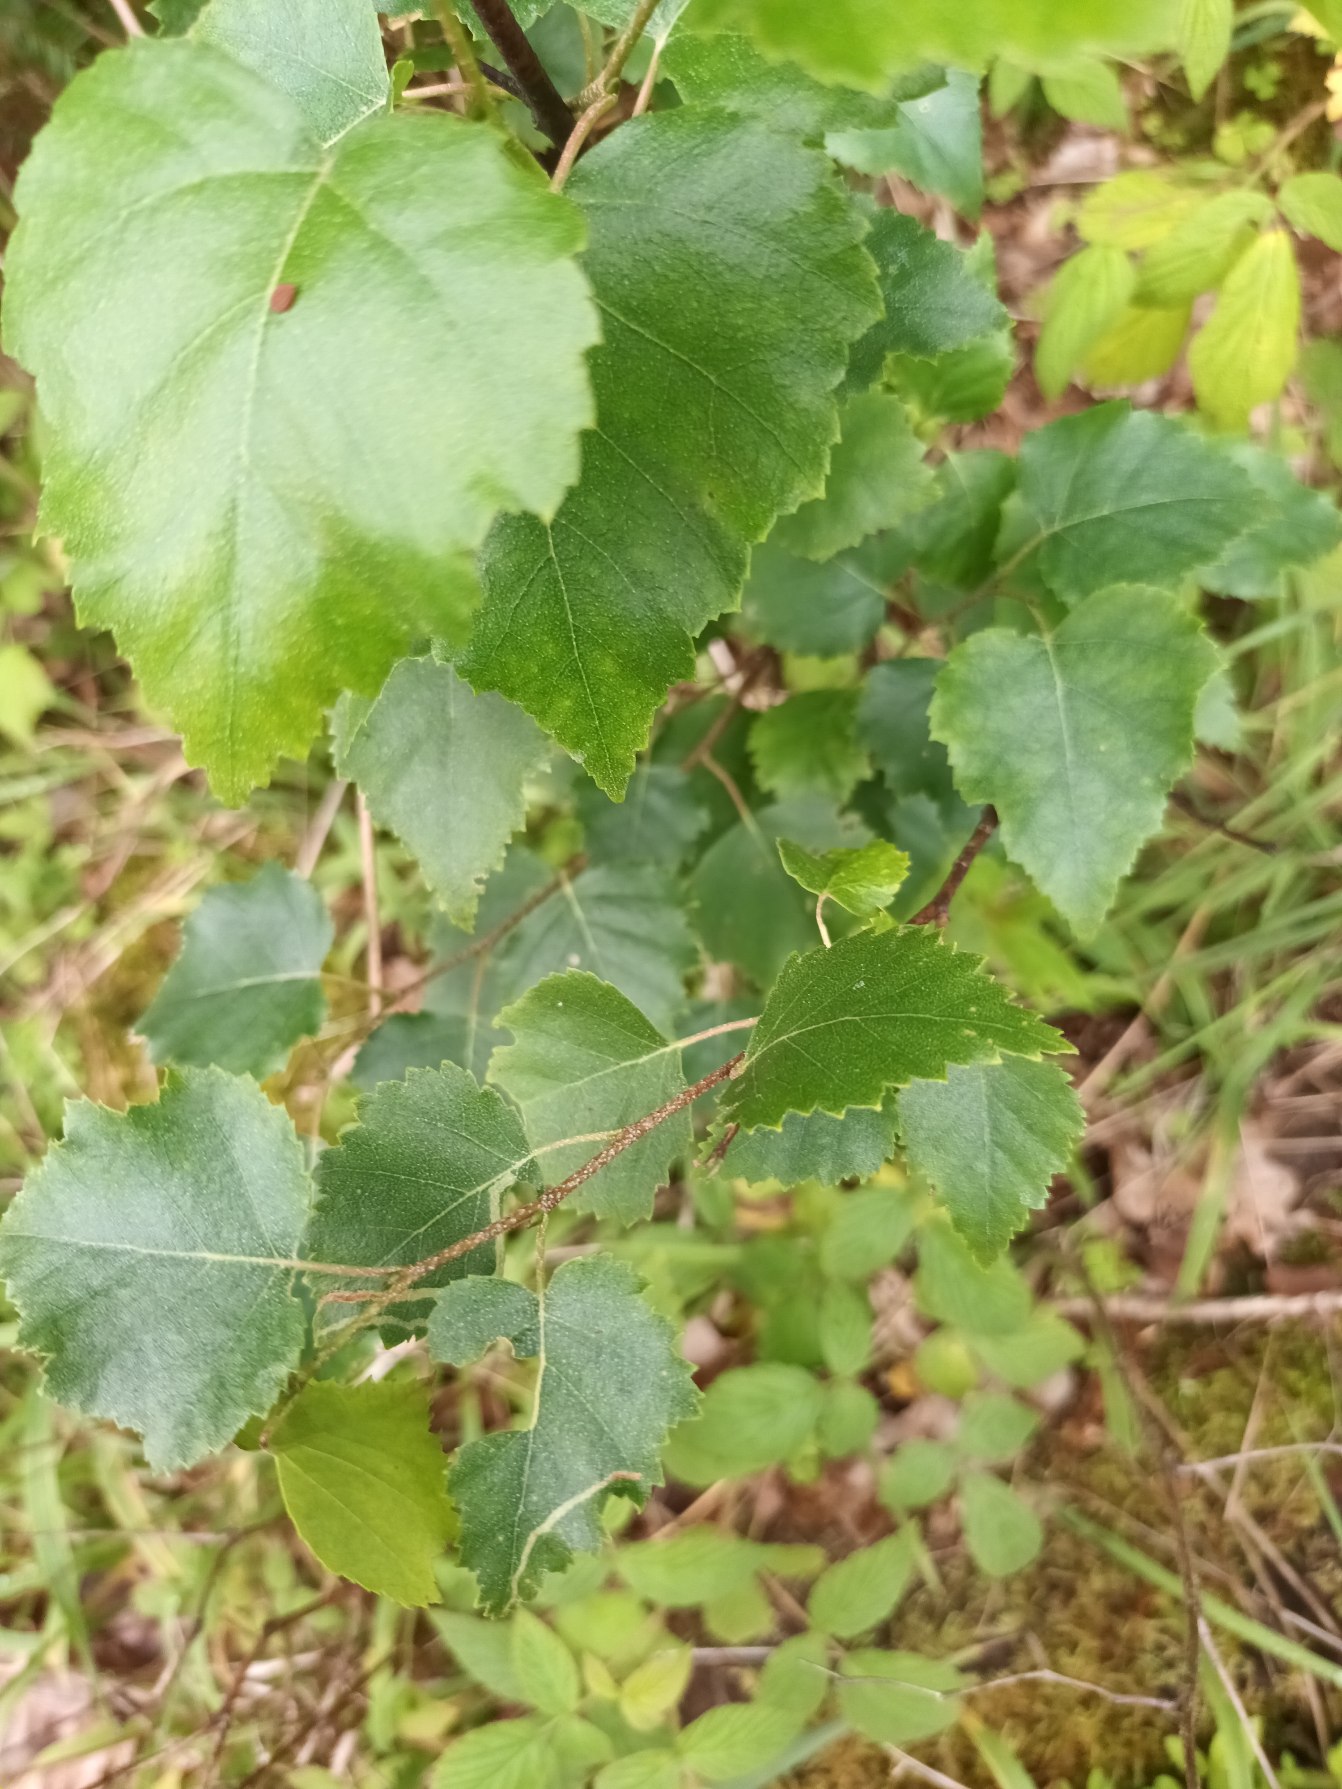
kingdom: Plantae
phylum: Tracheophyta
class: Magnoliopsida
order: Fagales
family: Betulaceae
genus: Betula
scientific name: Betula pendula
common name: Vorte-birk
